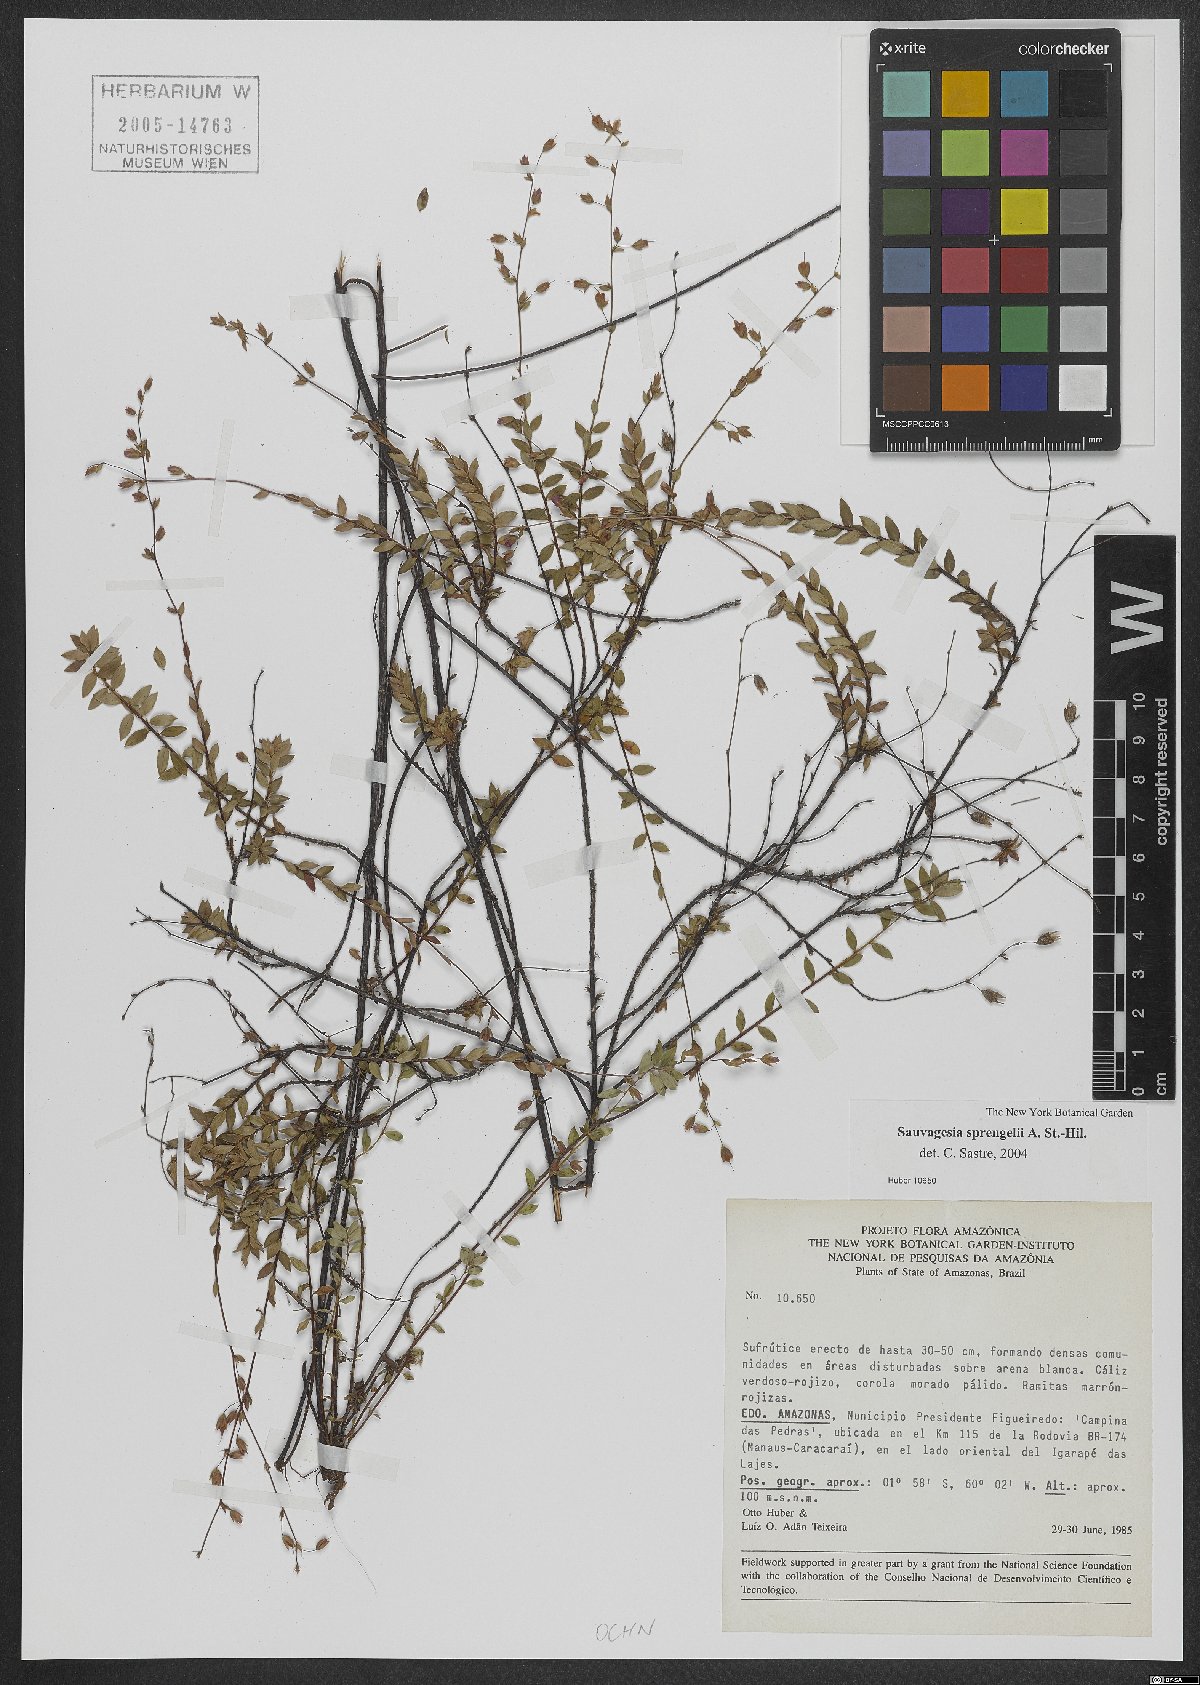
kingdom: Plantae
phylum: Tracheophyta
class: Magnoliopsida
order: Malpighiales
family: Ochnaceae
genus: Sauvagesia
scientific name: Sauvagesia tenella
